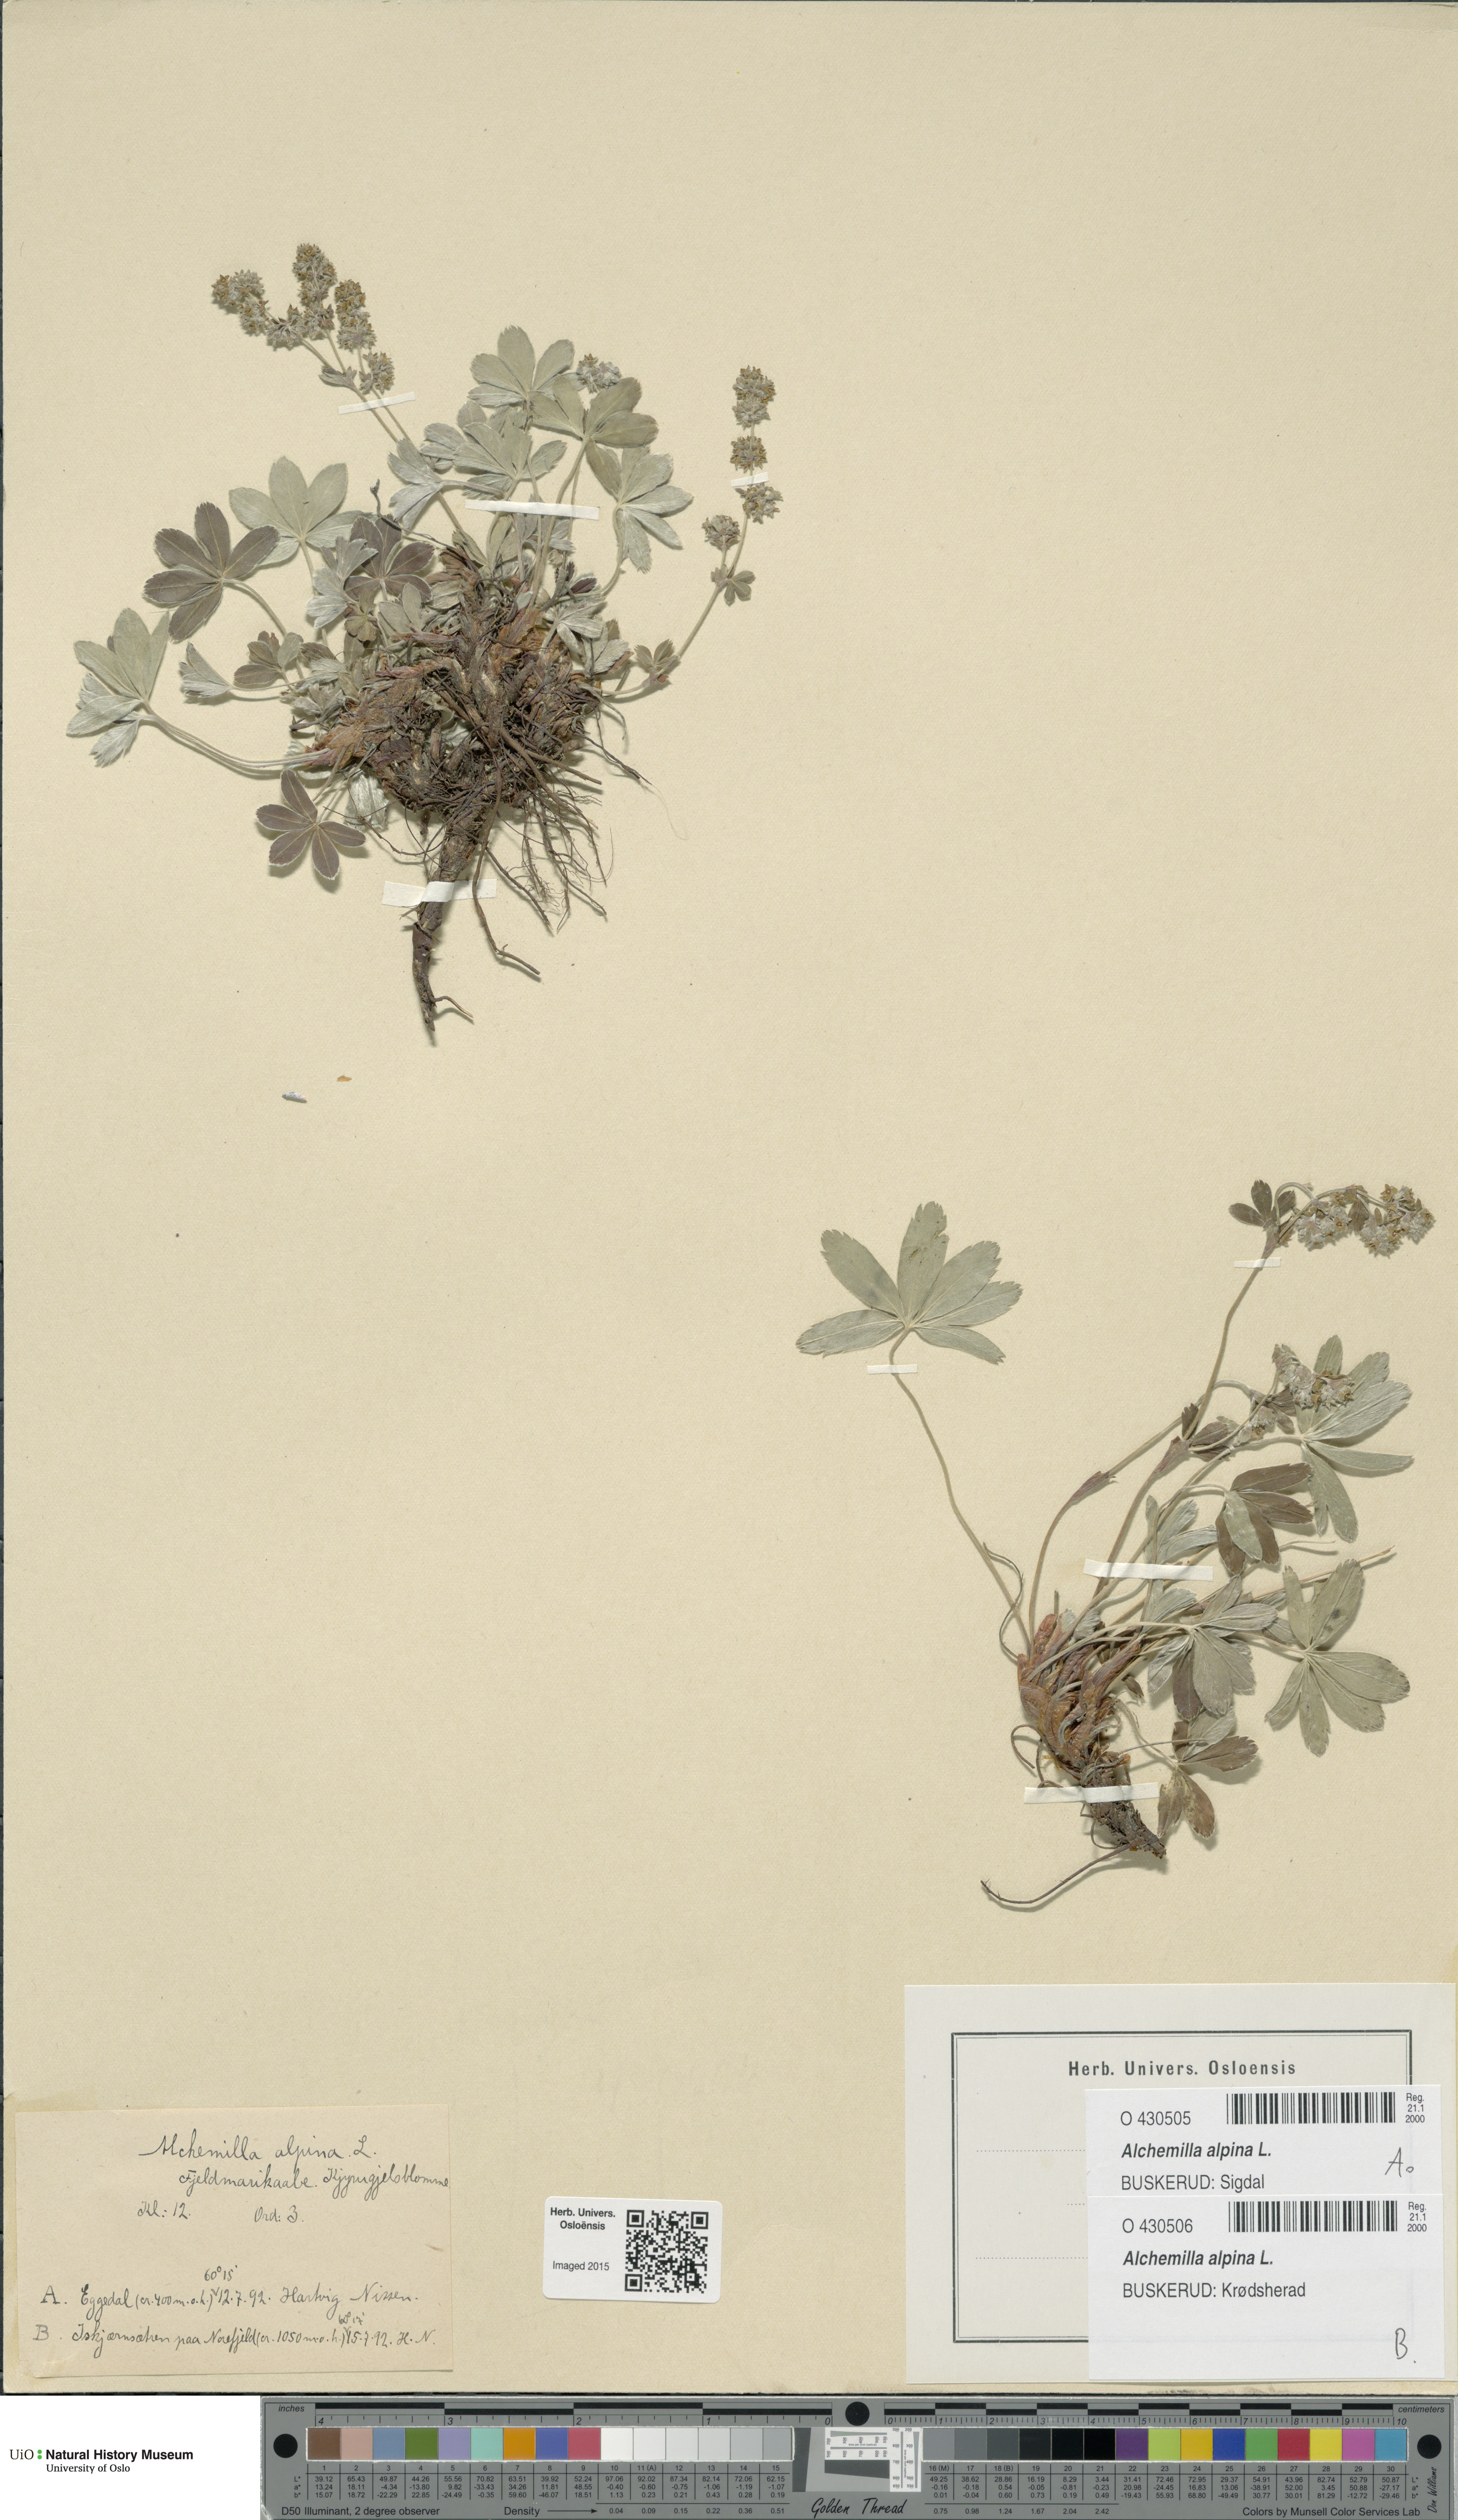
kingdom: Plantae
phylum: Tracheophyta
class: Magnoliopsida
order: Rosales
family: Rosaceae
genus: Alchemilla
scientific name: Alchemilla alpina
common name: Alpine lady's-mantle
